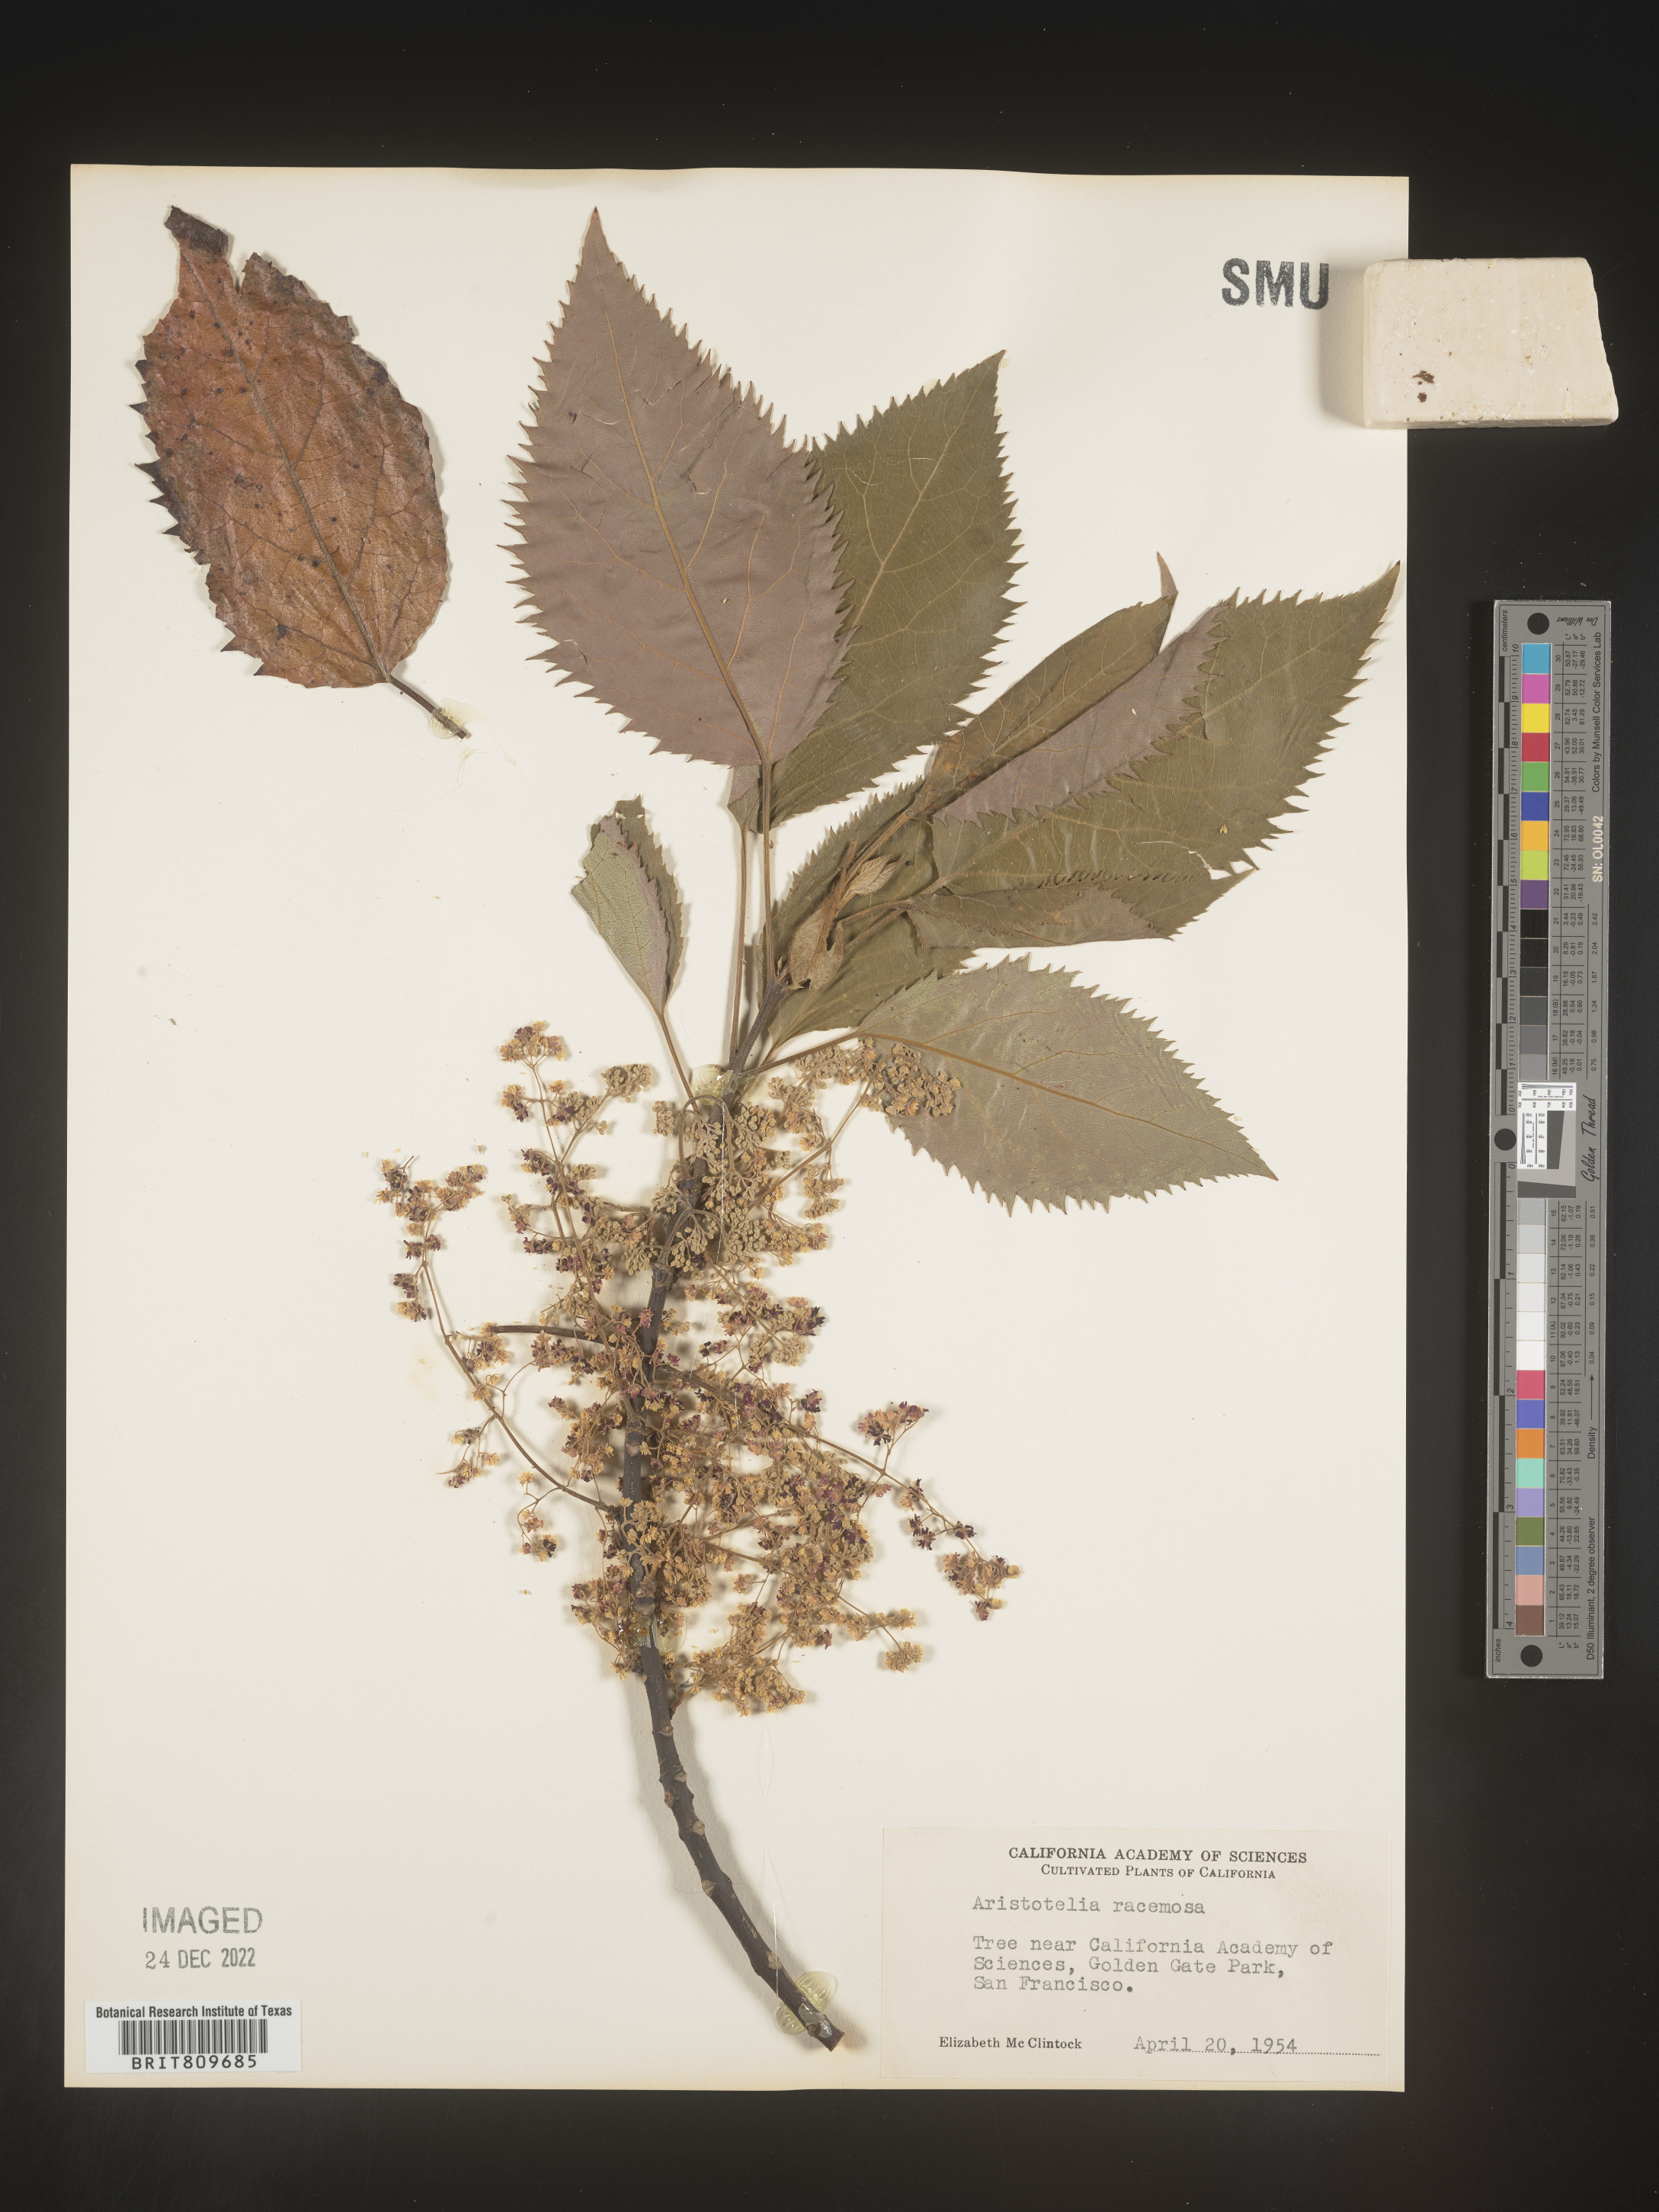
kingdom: Plantae
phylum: Tracheophyta
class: Magnoliopsida
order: Oxalidales
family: Elaeocarpaceae
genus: Aristotelia
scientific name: Aristotelia
